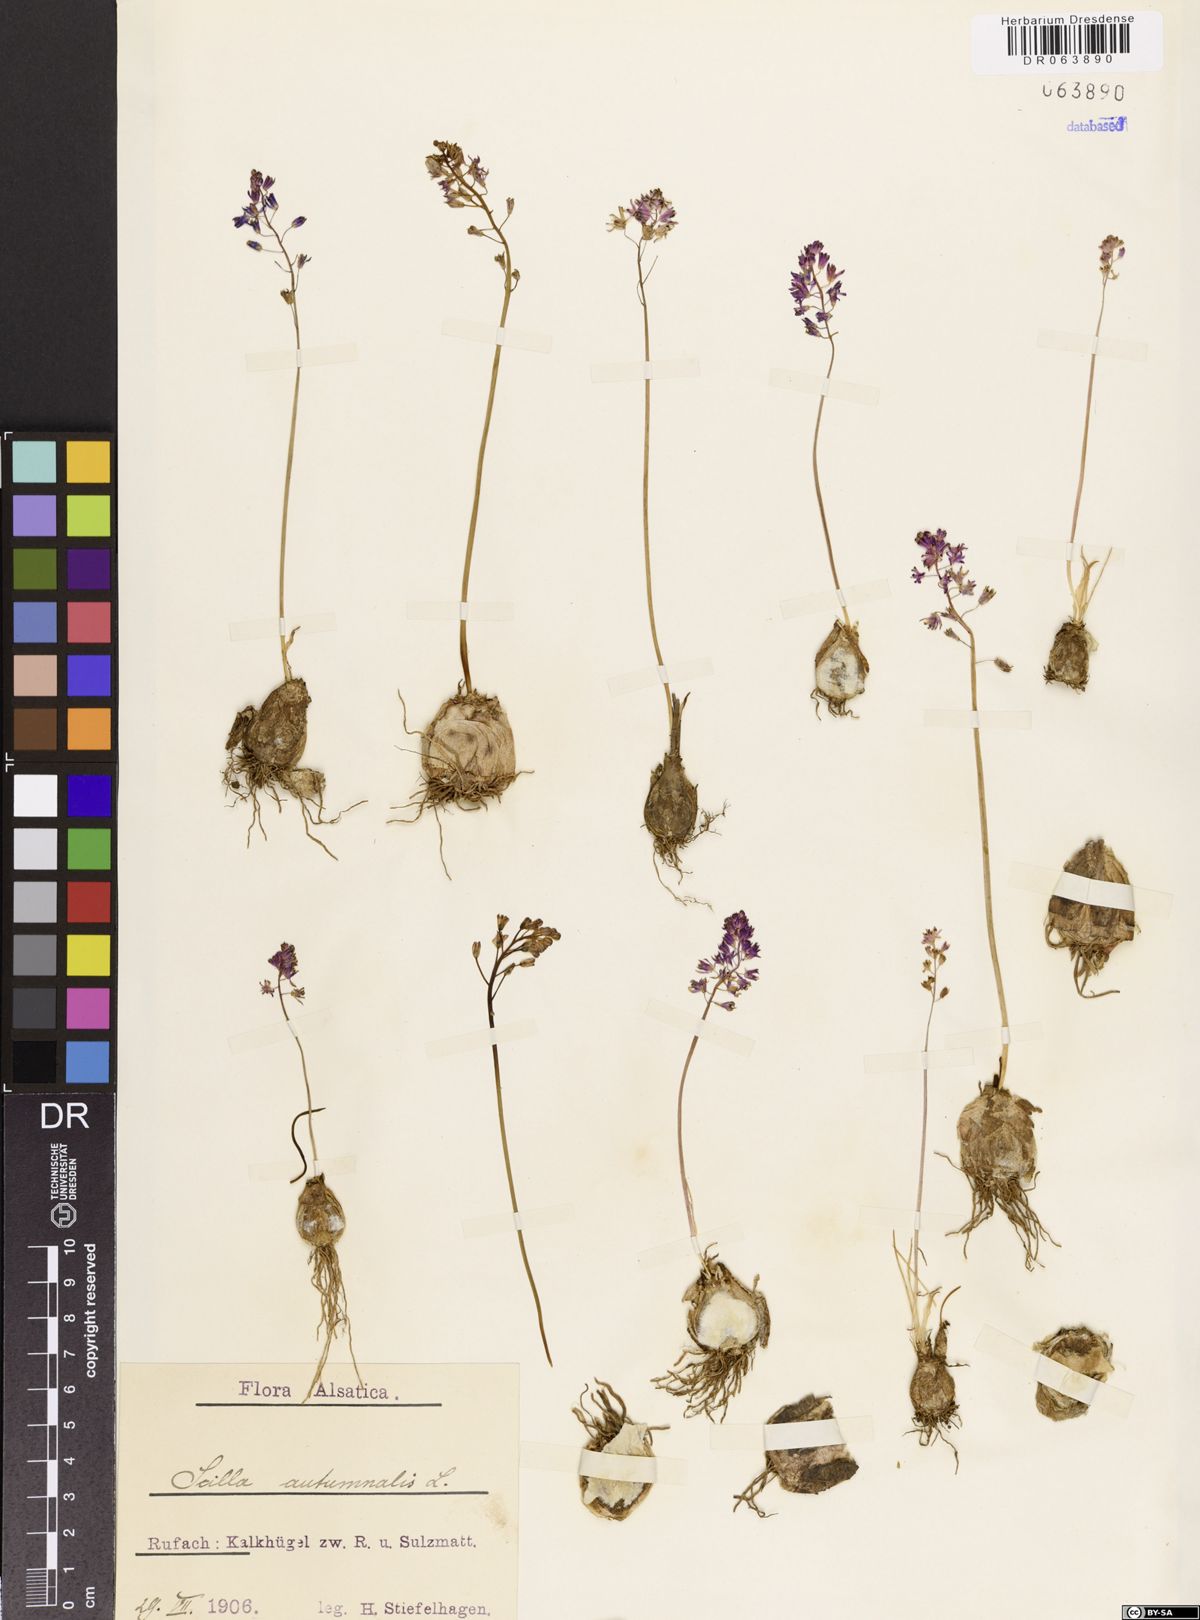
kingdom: Plantae
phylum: Tracheophyta
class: Liliopsida
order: Asparagales
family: Asparagaceae
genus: Prospero
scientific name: Prospero autumnale
